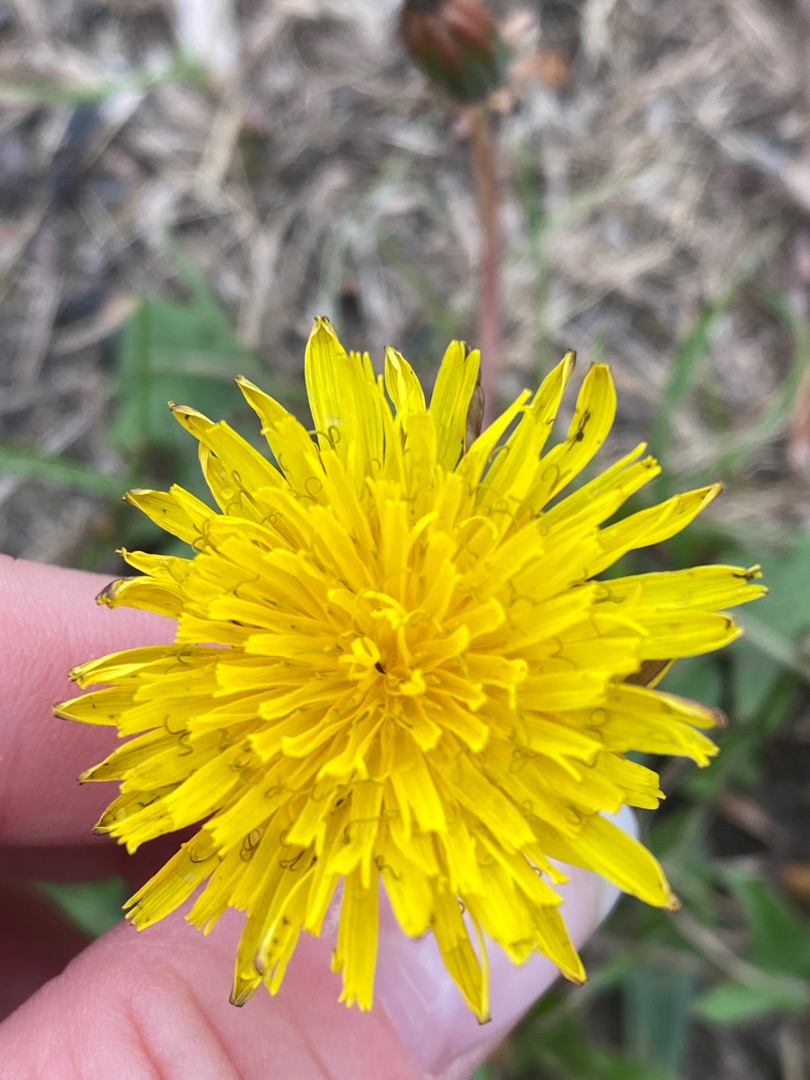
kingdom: Plantae
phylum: Tracheophyta
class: Magnoliopsida
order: Asterales
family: Asteraceae
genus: Taraxacum
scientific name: Taraxacum
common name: Mælkebøtteslægten
